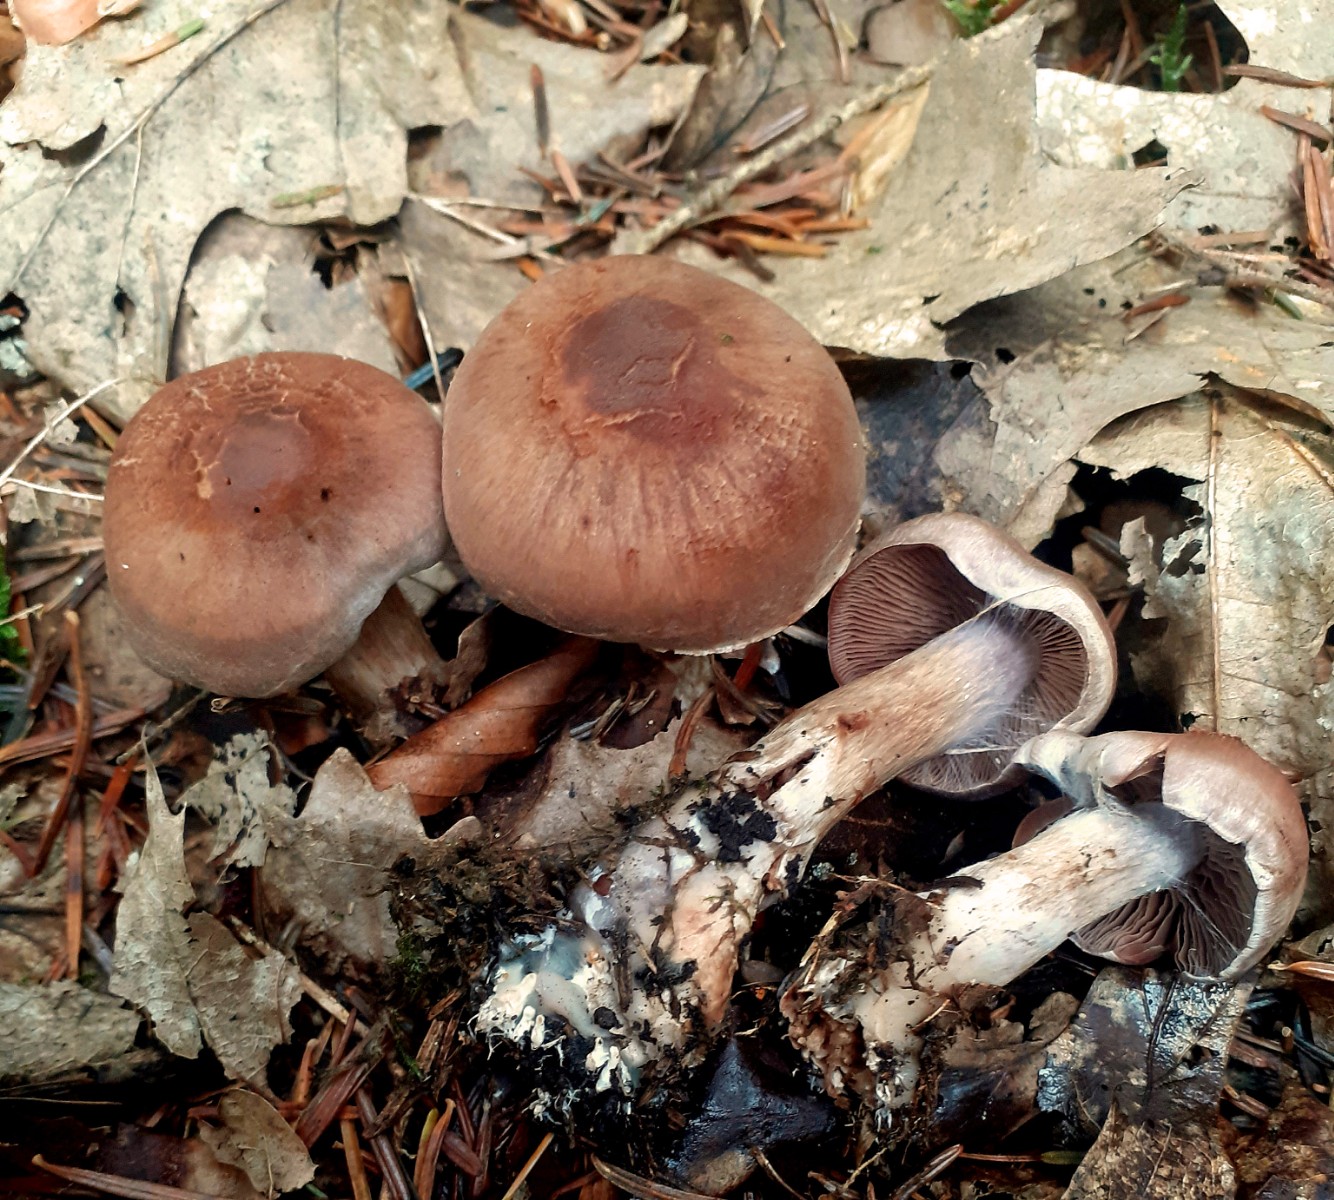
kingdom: Fungi
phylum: Basidiomycota
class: Agaricomycetes
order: Agaricales
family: Cortinariaceae
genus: Cortinarius
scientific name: Cortinarius
